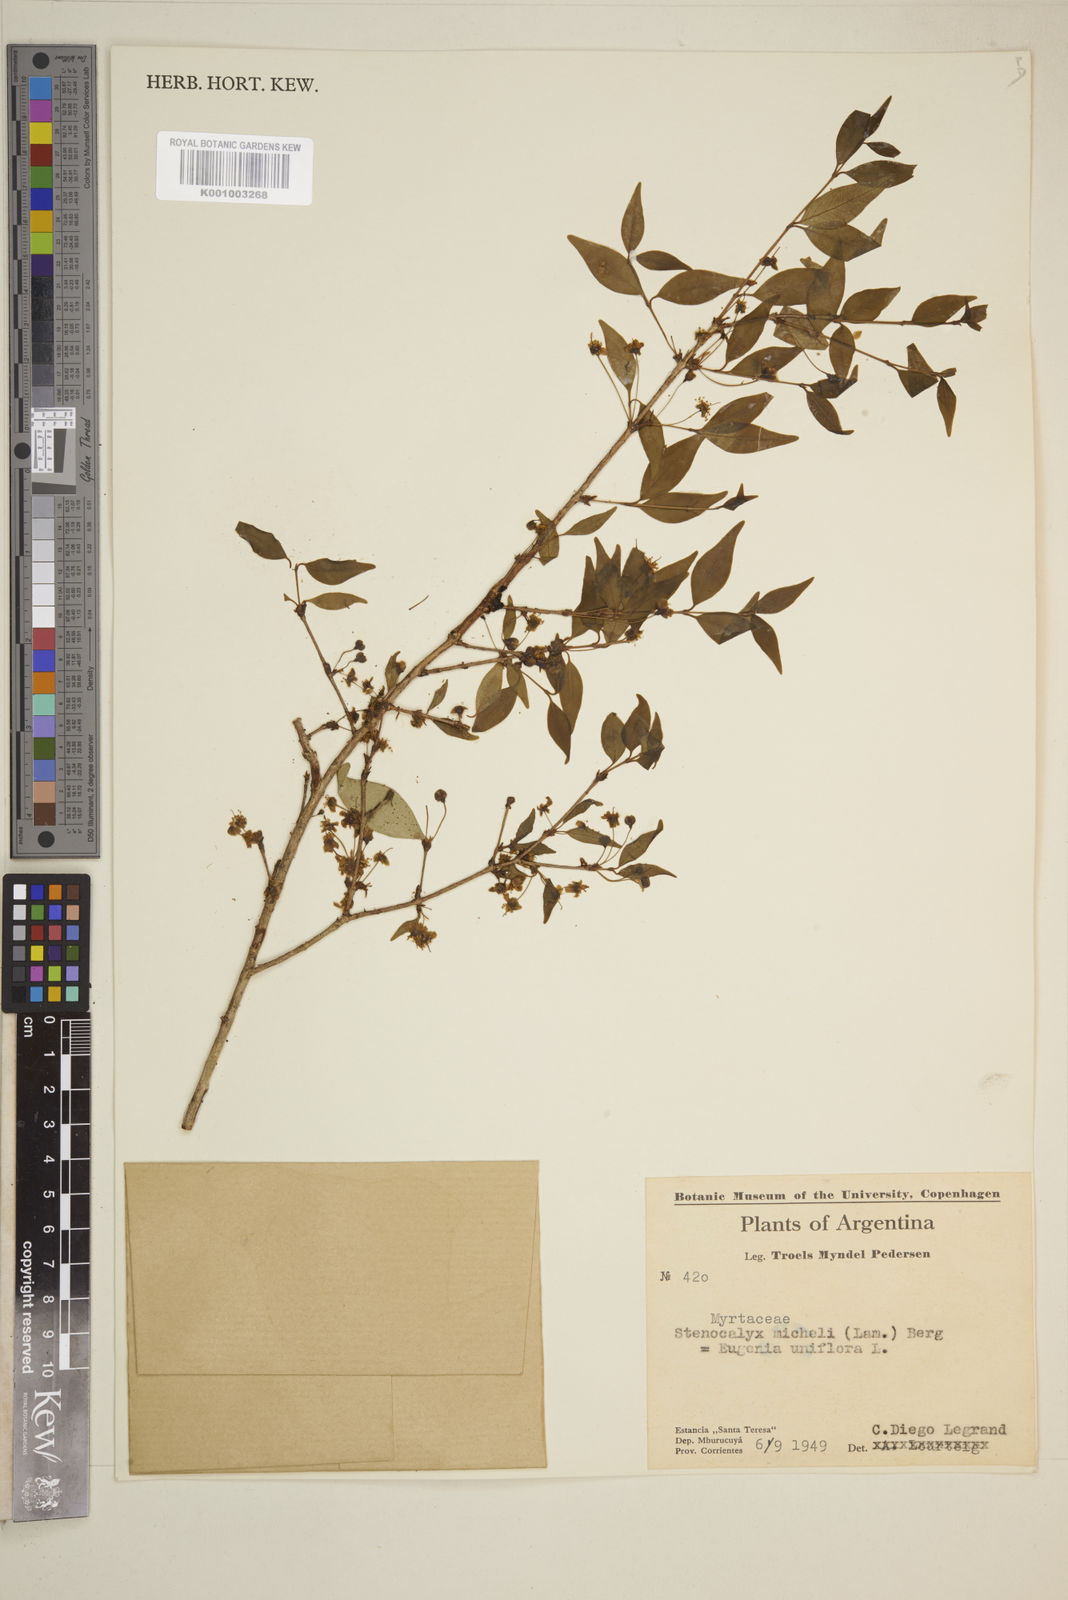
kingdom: Plantae
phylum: Tracheophyta
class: Magnoliopsida
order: Myrtales
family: Myrtaceae
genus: Eugenia
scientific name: Eugenia uniflora
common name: Surinam cherry
